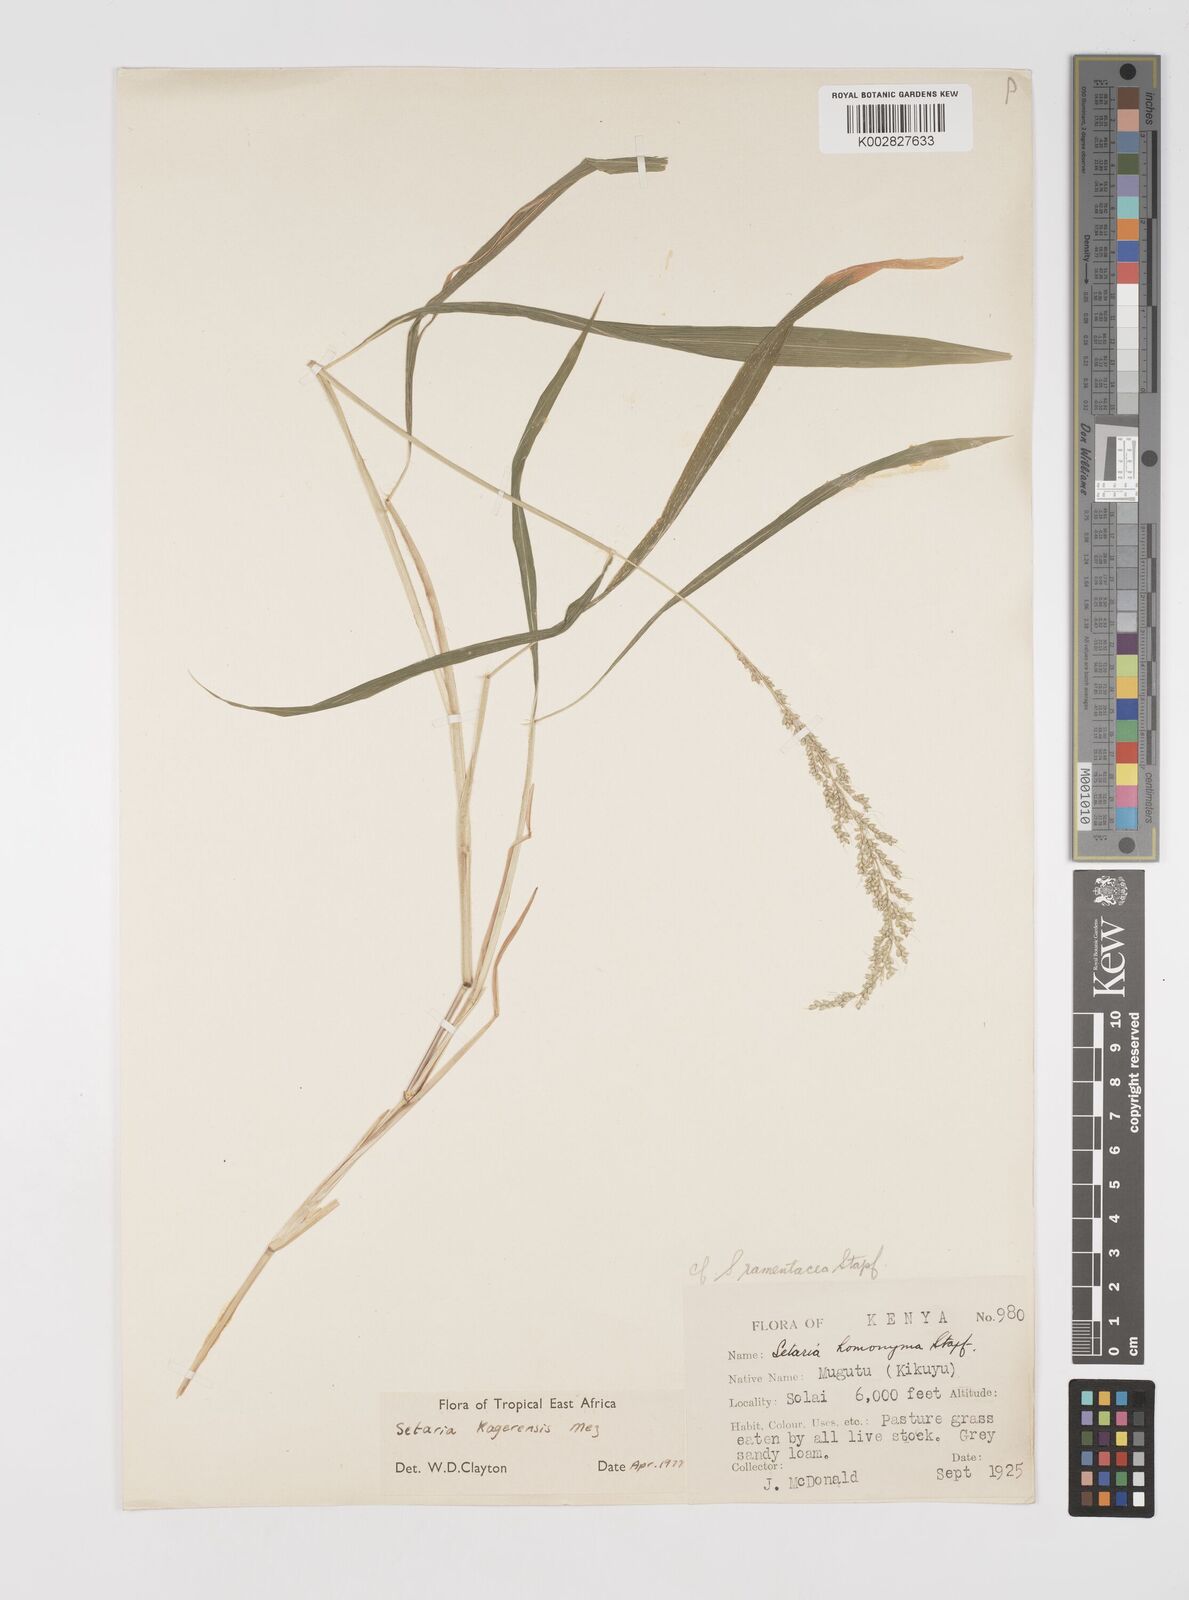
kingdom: Plantae
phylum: Tracheophyta
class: Liliopsida
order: Poales
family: Poaceae
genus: Setaria
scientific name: Setaria kagerensis
